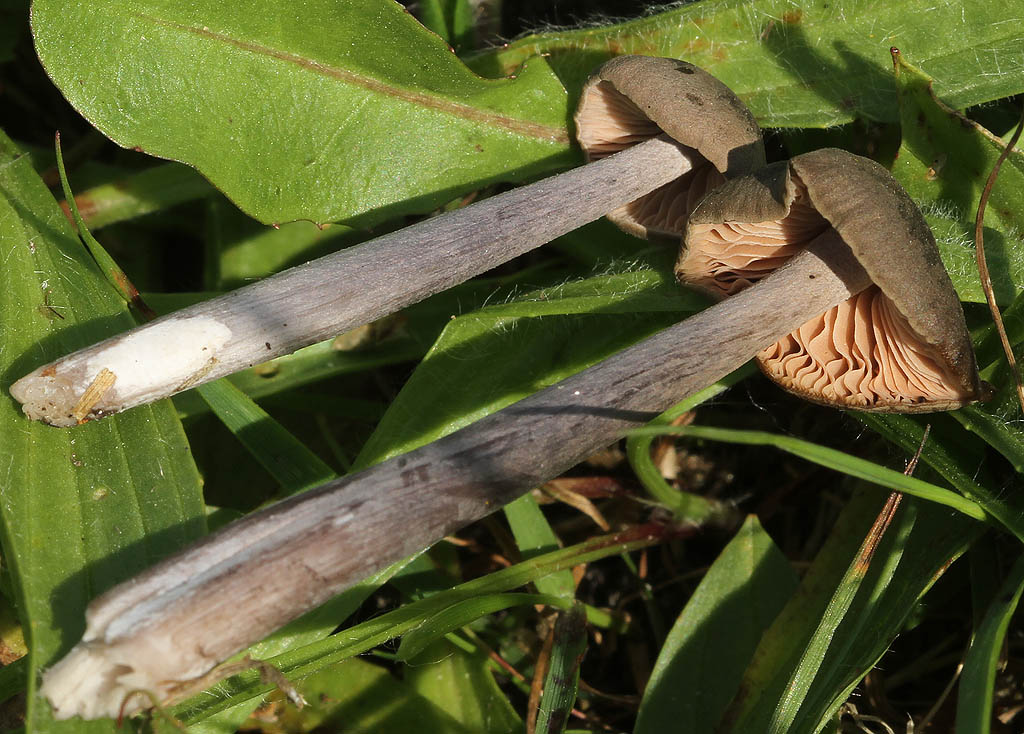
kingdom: Fungi
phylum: Basidiomycota
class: Agaricomycetes
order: Agaricales
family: Entolomataceae
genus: Entoloma
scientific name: Entoloma griseocyaneum
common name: gråblå rødblad
